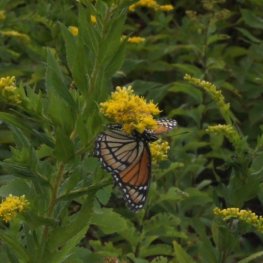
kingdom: Animalia
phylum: Arthropoda
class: Insecta
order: Lepidoptera
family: Nymphalidae
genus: Limenitis
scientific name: Limenitis archippus
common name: Viceroy
